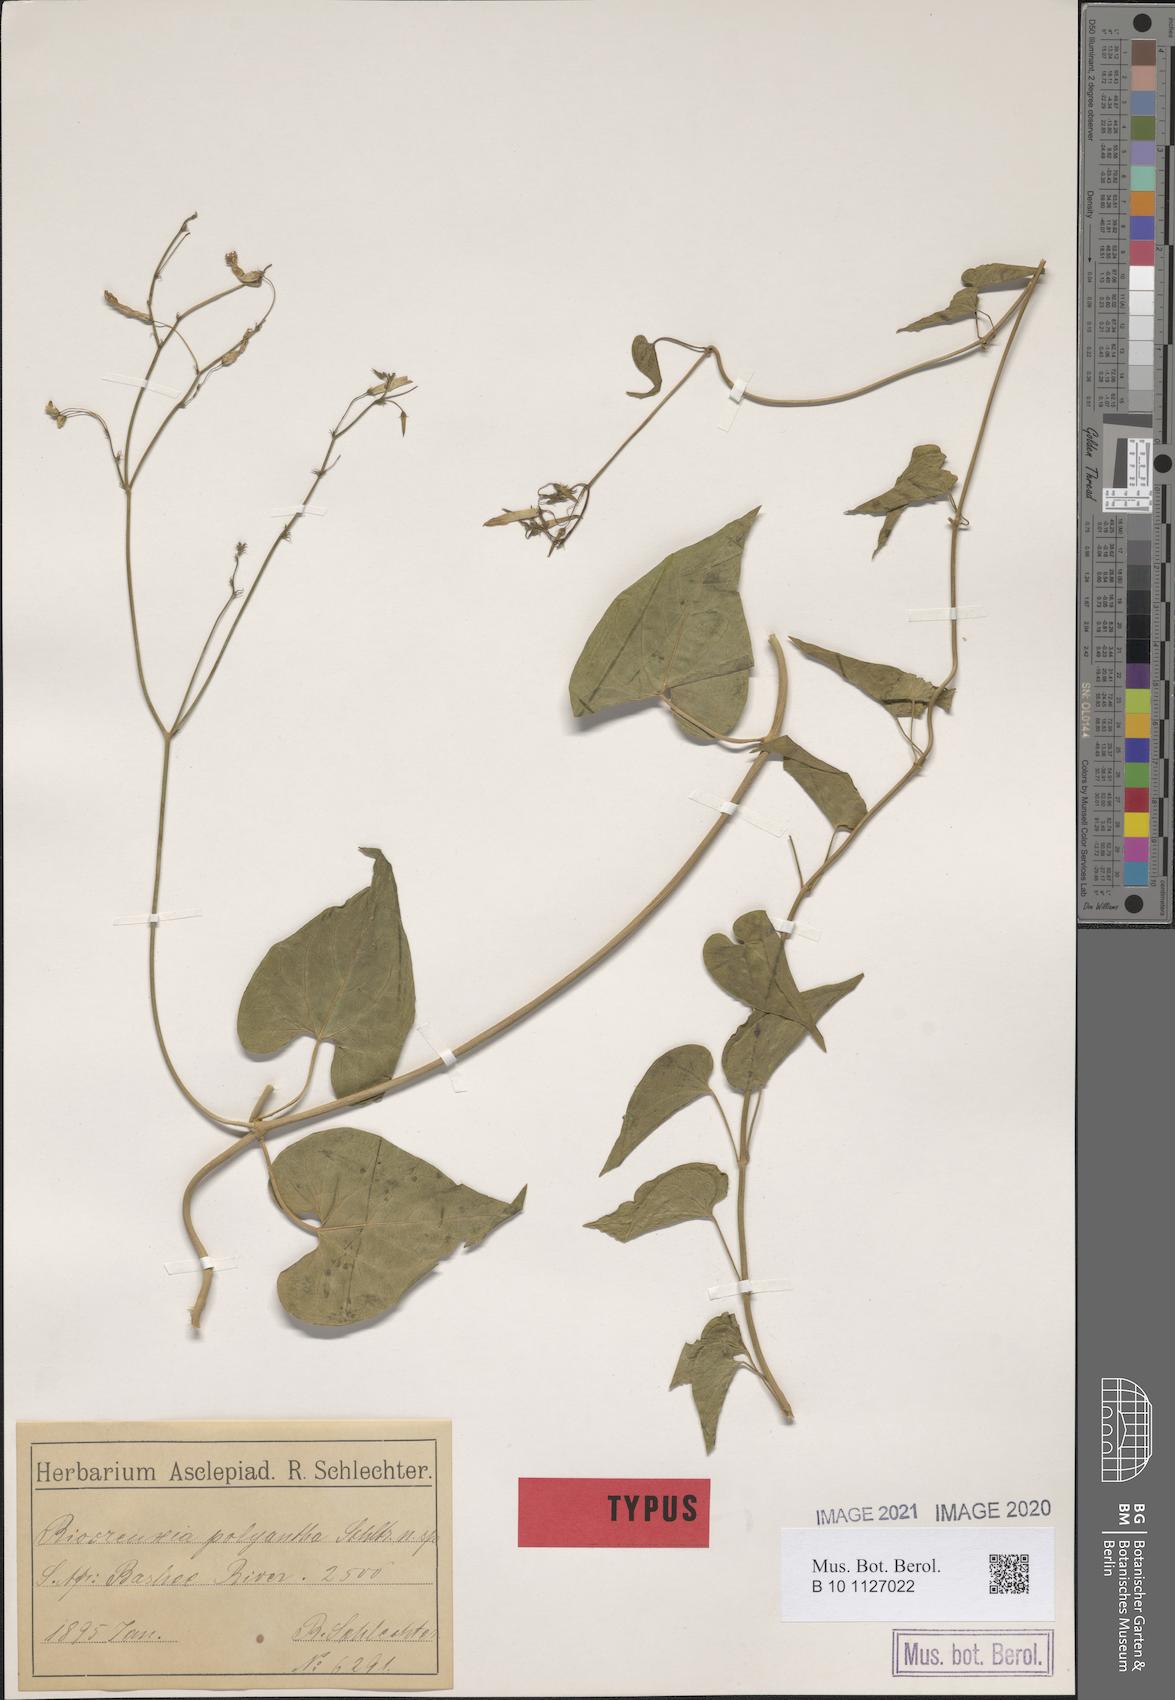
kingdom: Plantae
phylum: Tracheophyta
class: Magnoliopsida
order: Gentianales
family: Apocynaceae
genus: Riocreuxia
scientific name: Riocreuxia polyantha
